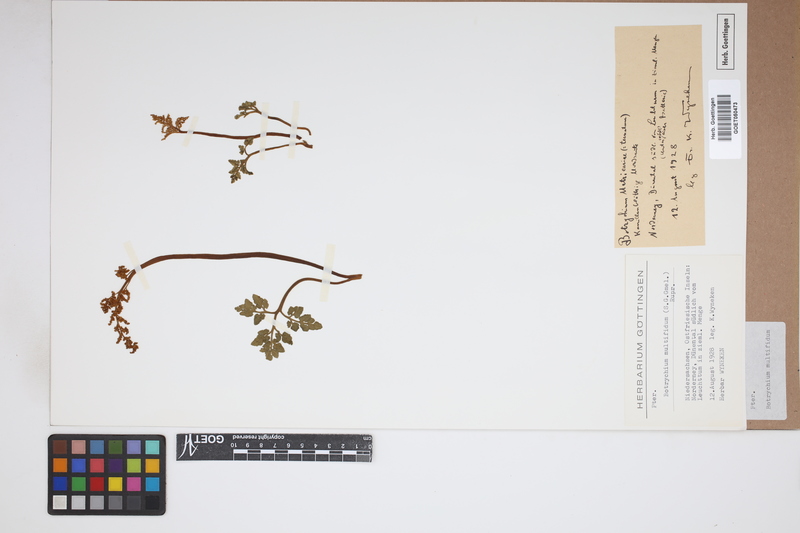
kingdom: Plantae
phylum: Tracheophyta
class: Polypodiopsida
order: Ophioglossales
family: Ophioglossaceae
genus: Sceptridium
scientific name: Sceptridium multifidum
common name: Leathery grape fern
